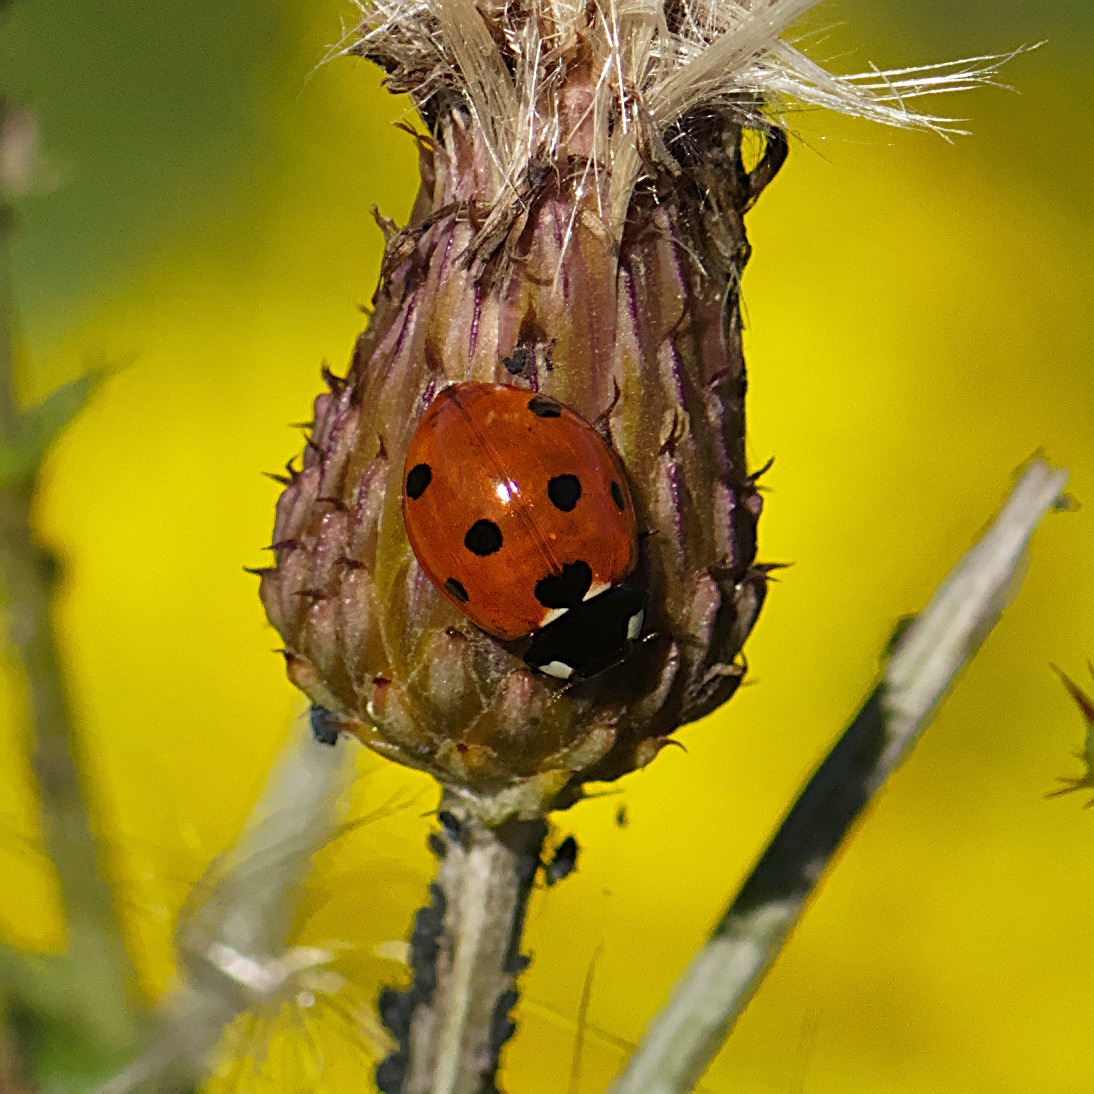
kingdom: Animalia
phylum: Arthropoda
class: Insecta
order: Coleoptera
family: Coccinellidae
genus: Coccinella
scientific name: Coccinella septempunctata
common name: Syvplettet mariehøne
